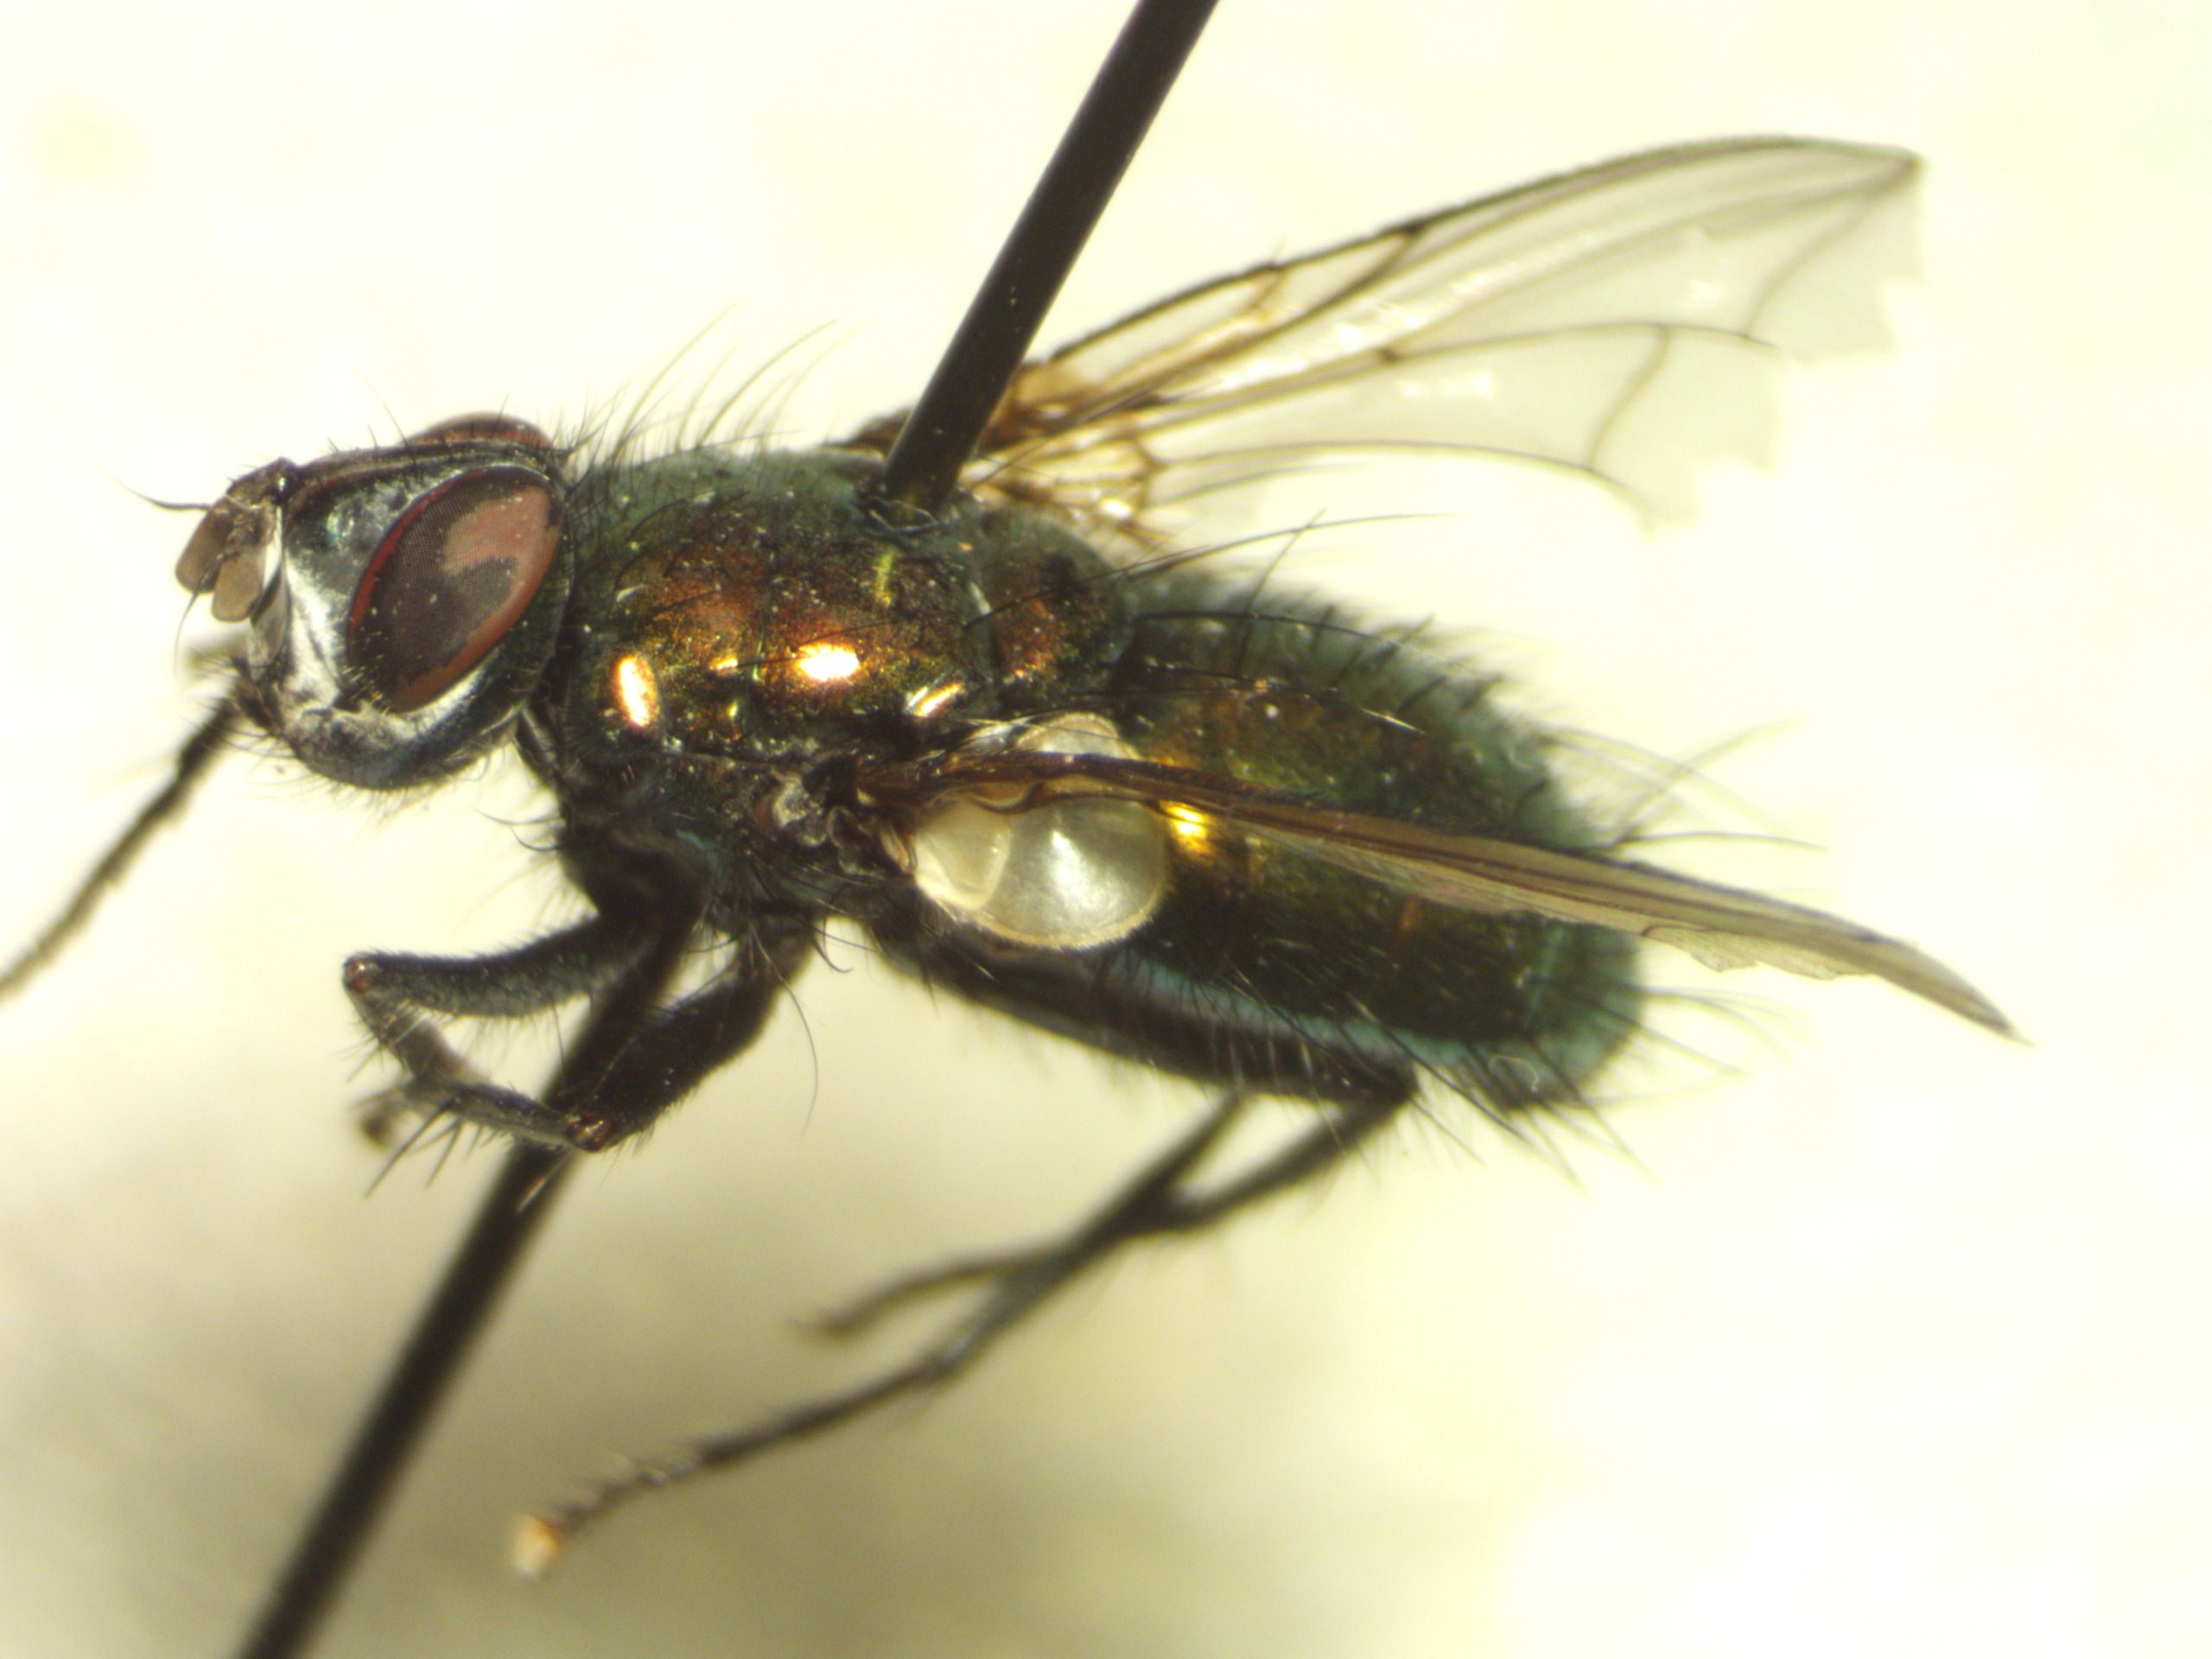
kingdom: Animalia
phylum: Arthropoda
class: Insecta
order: Diptera
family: Tachinidae
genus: Gymnocheta
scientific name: Gymnocheta viridis
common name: Grøn snylteflue
